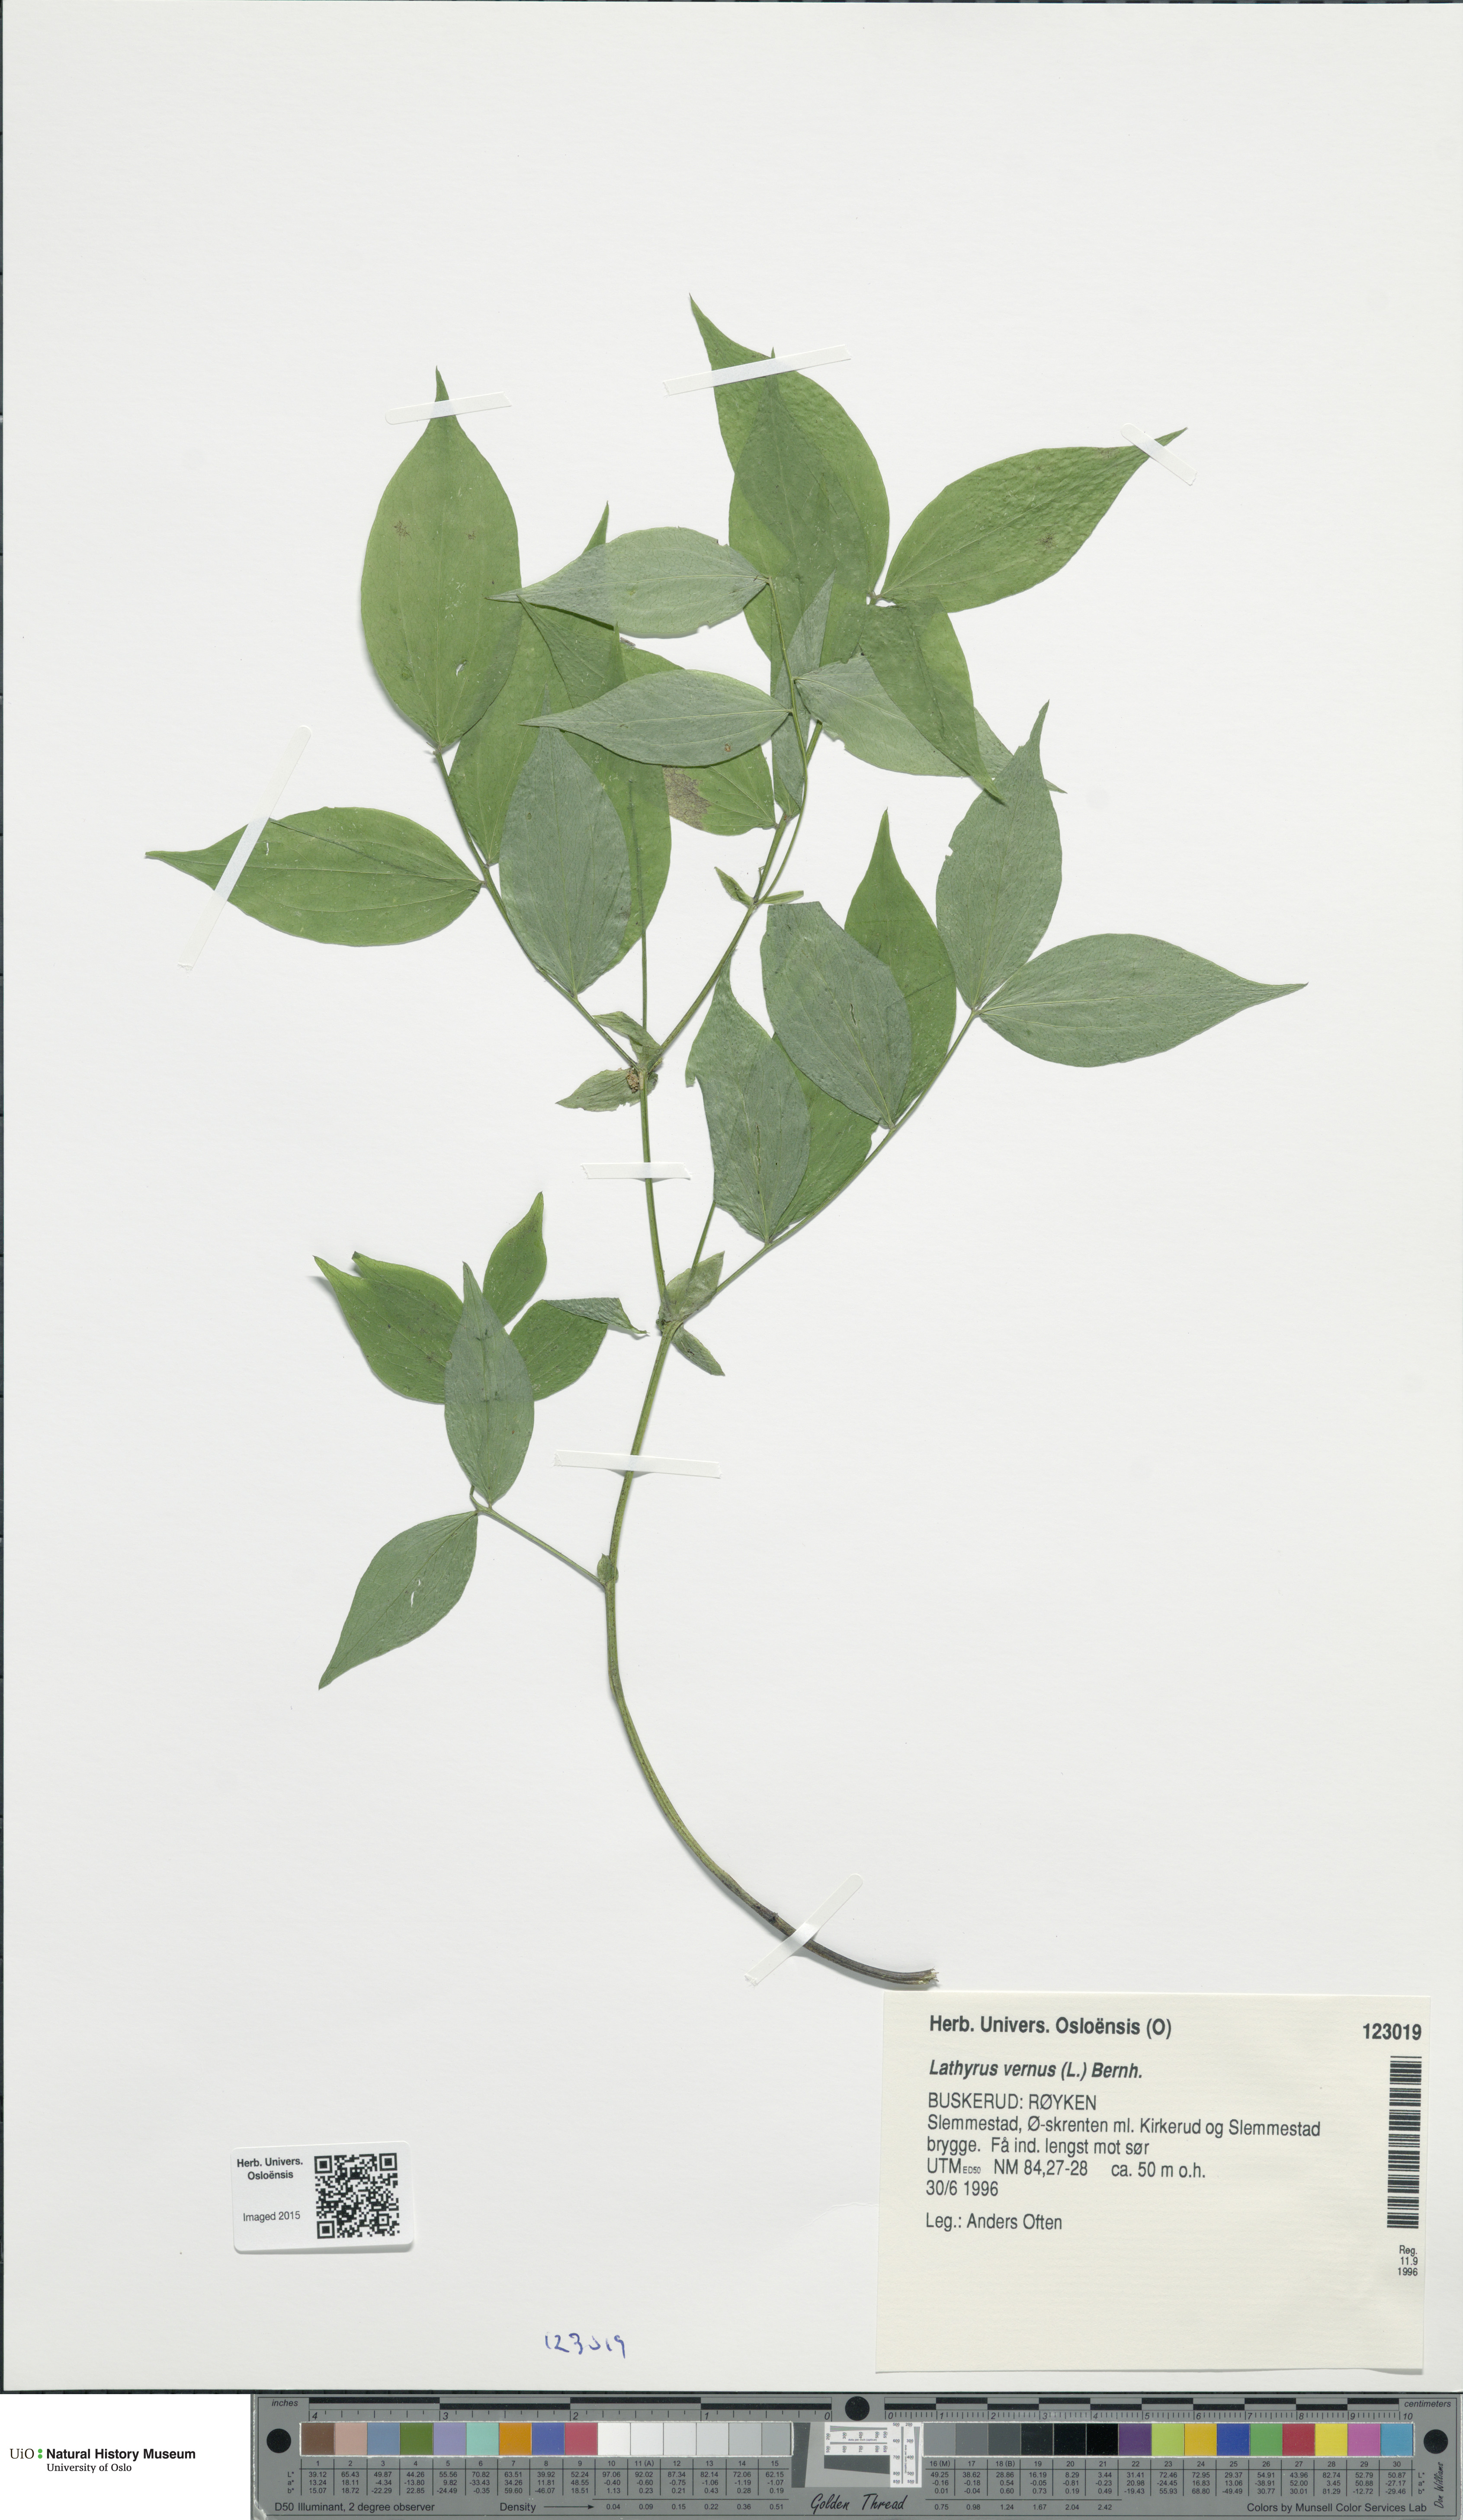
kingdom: Plantae
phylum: Tracheophyta
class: Magnoliopsida
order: Fabales
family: Fabaceae
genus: Lathyrus
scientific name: Lathyrus vernus
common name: Spring pea
